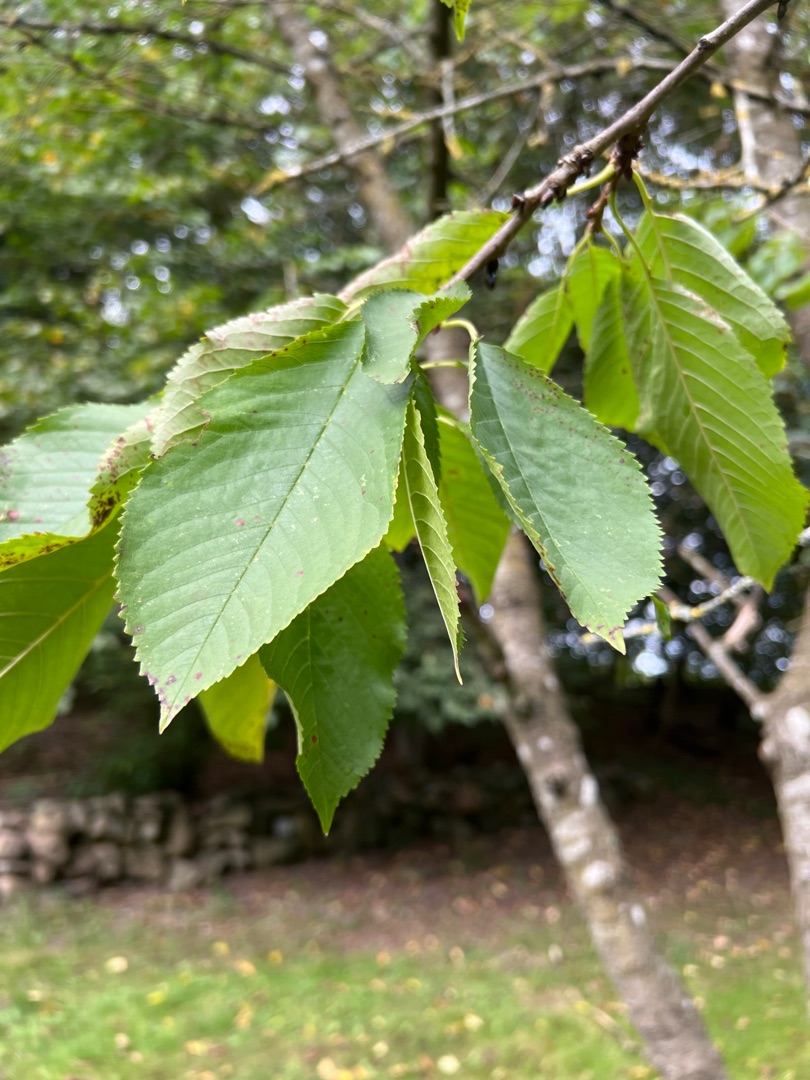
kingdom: Plantae
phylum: Tracheophyta
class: Magnoliopsida
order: Rosales
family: Rosaceae
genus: Prunus
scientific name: Prunus avium
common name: Fugle-kirsebær
